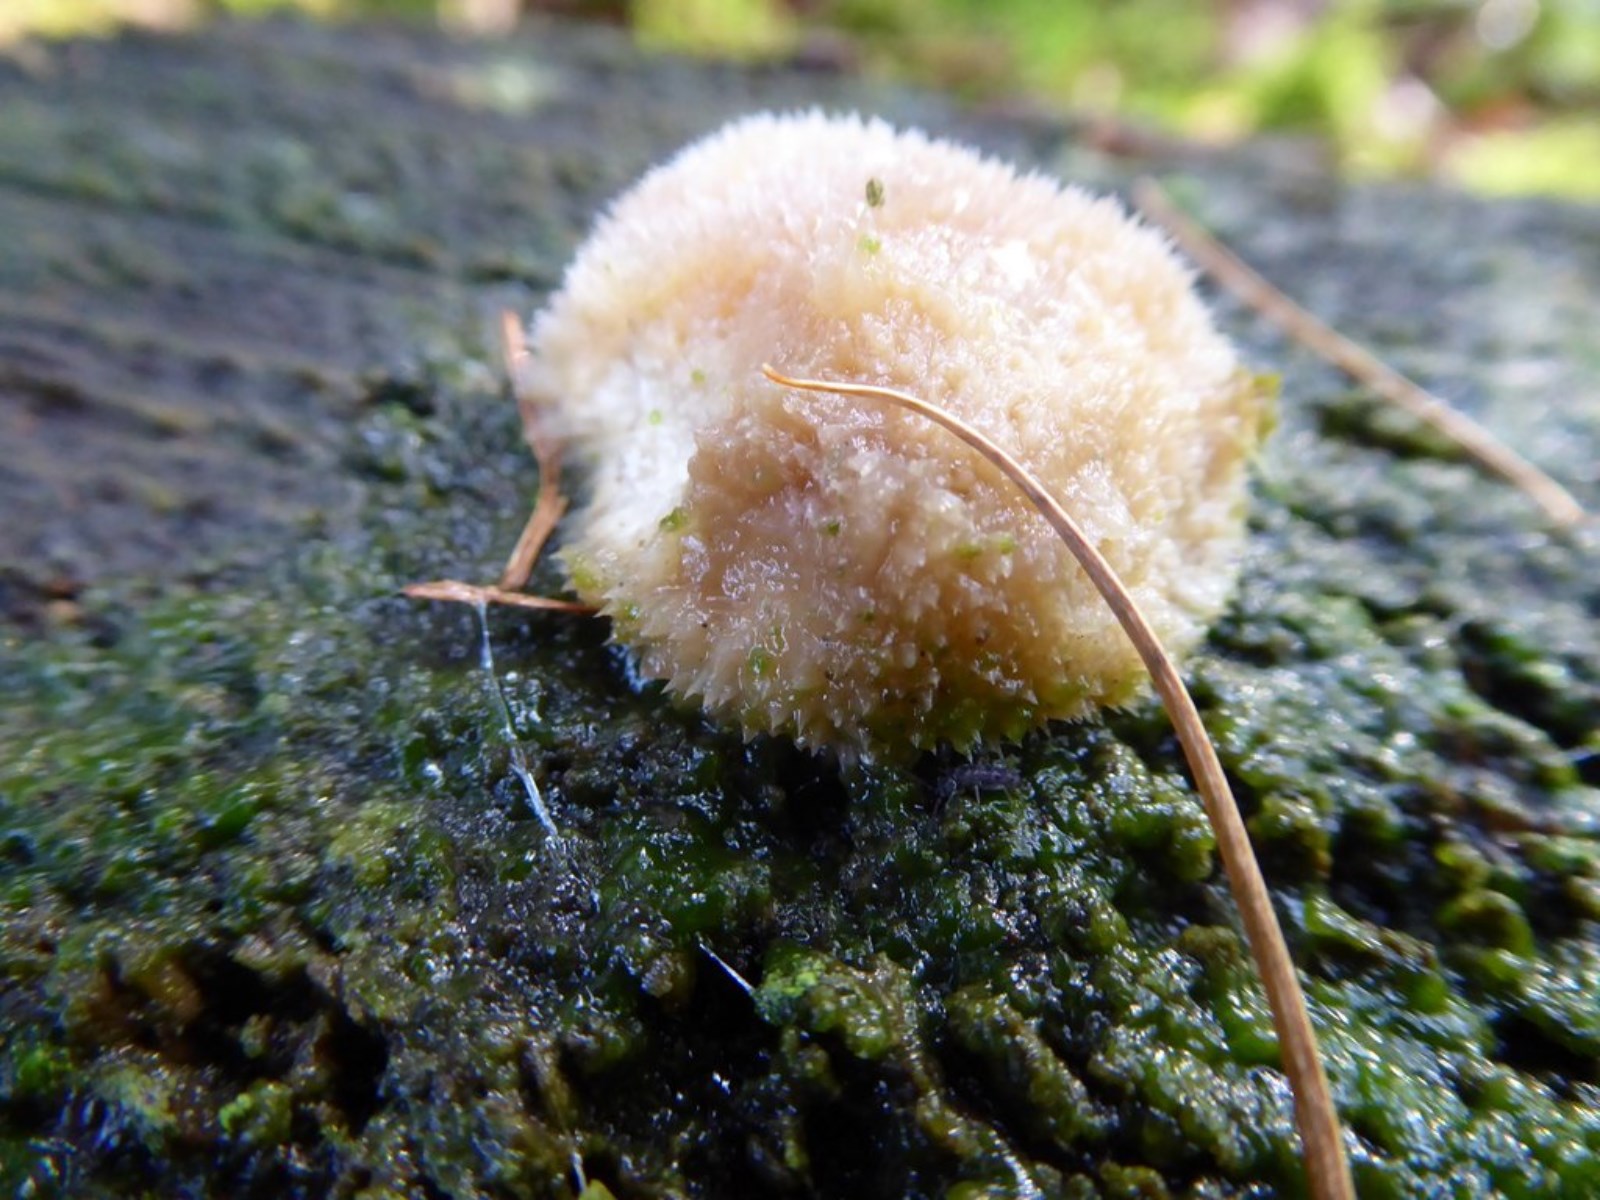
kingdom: Fungi
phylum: Basidiomycota
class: Agaricomycetes
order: Polyporales
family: Dacryobolaceae
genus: Postia
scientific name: Postia ptychogaster
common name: støvende kødporesvamp
